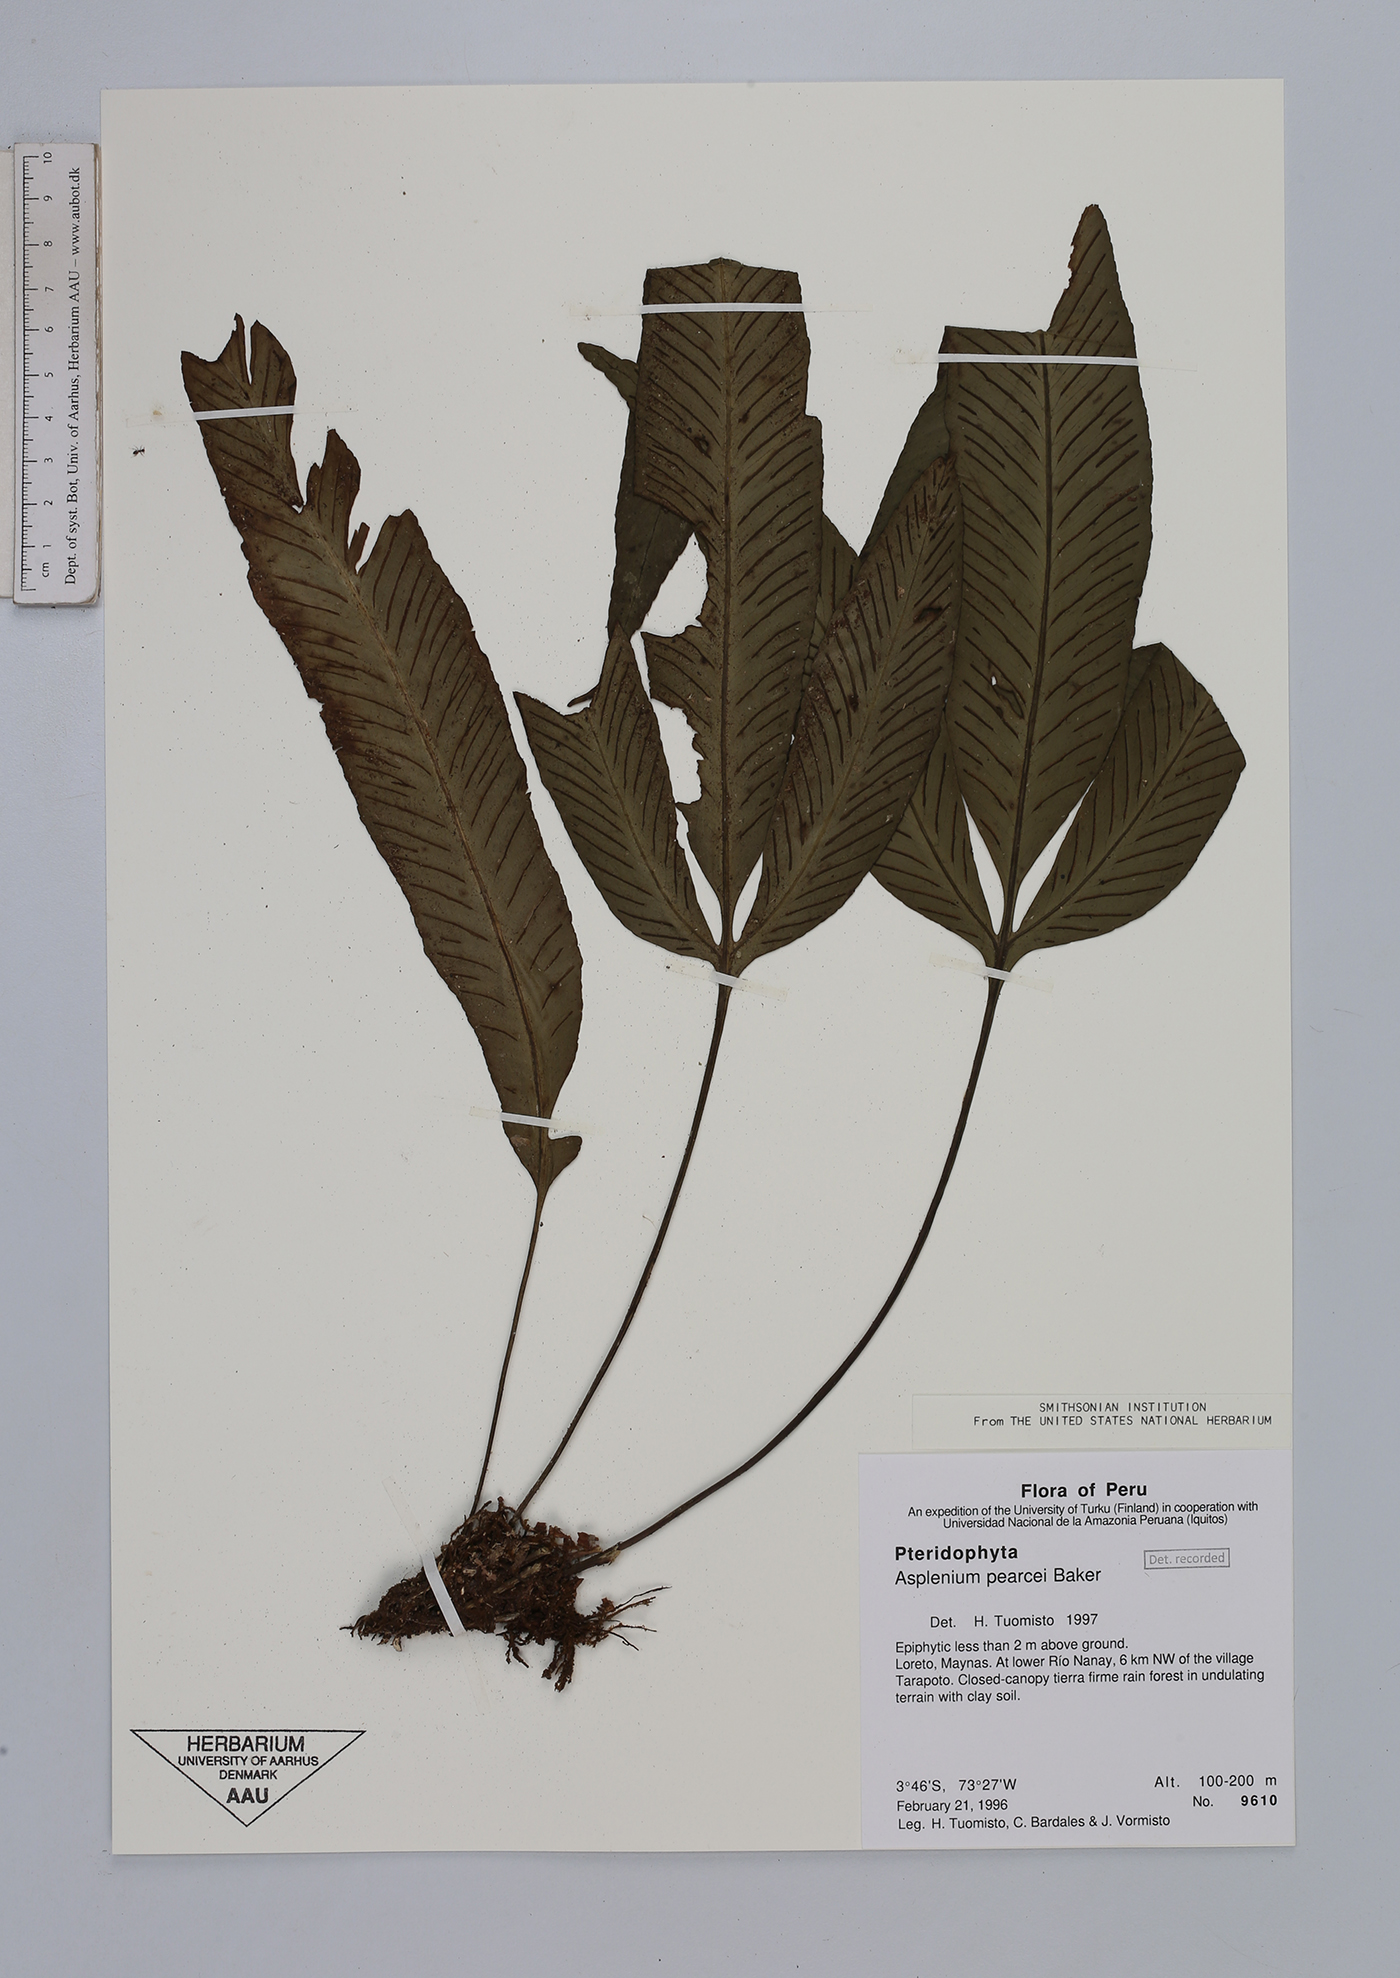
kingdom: Plantae
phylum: Tracheophyta
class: Polypodiopsida
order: Polypodiales
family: Aspleniaceae
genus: Asplenium
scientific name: Asplenium pearcei
